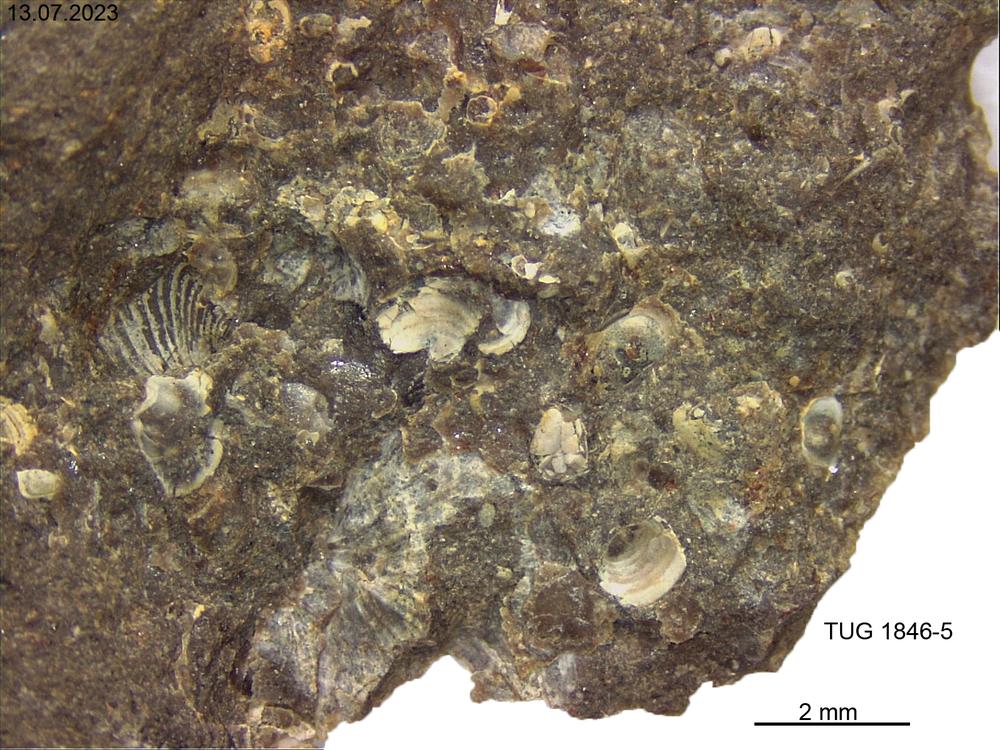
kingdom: Animalia
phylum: Brachiopoda
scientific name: Brachiopoda
